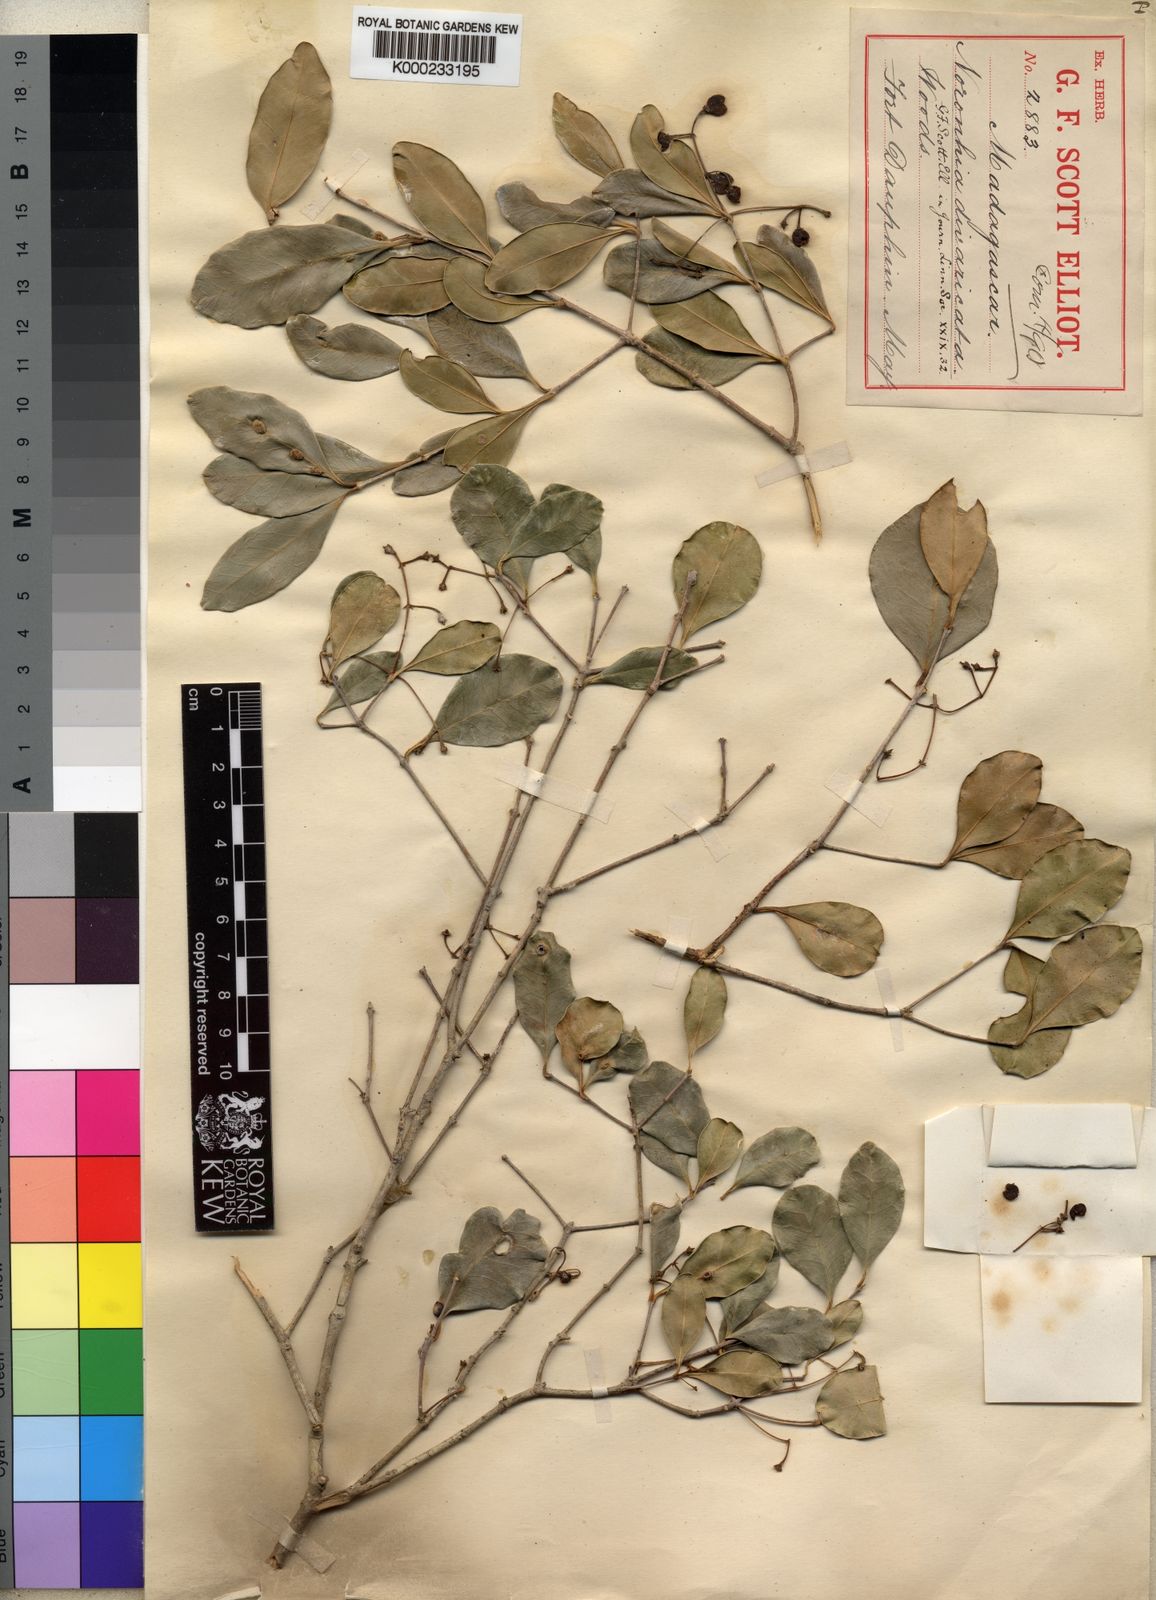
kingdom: Plantae
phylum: Tracheophyta
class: Magnoliopsida
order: Lamiales
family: Oleaceae
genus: Noronhia
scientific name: Noronhia divaricata
